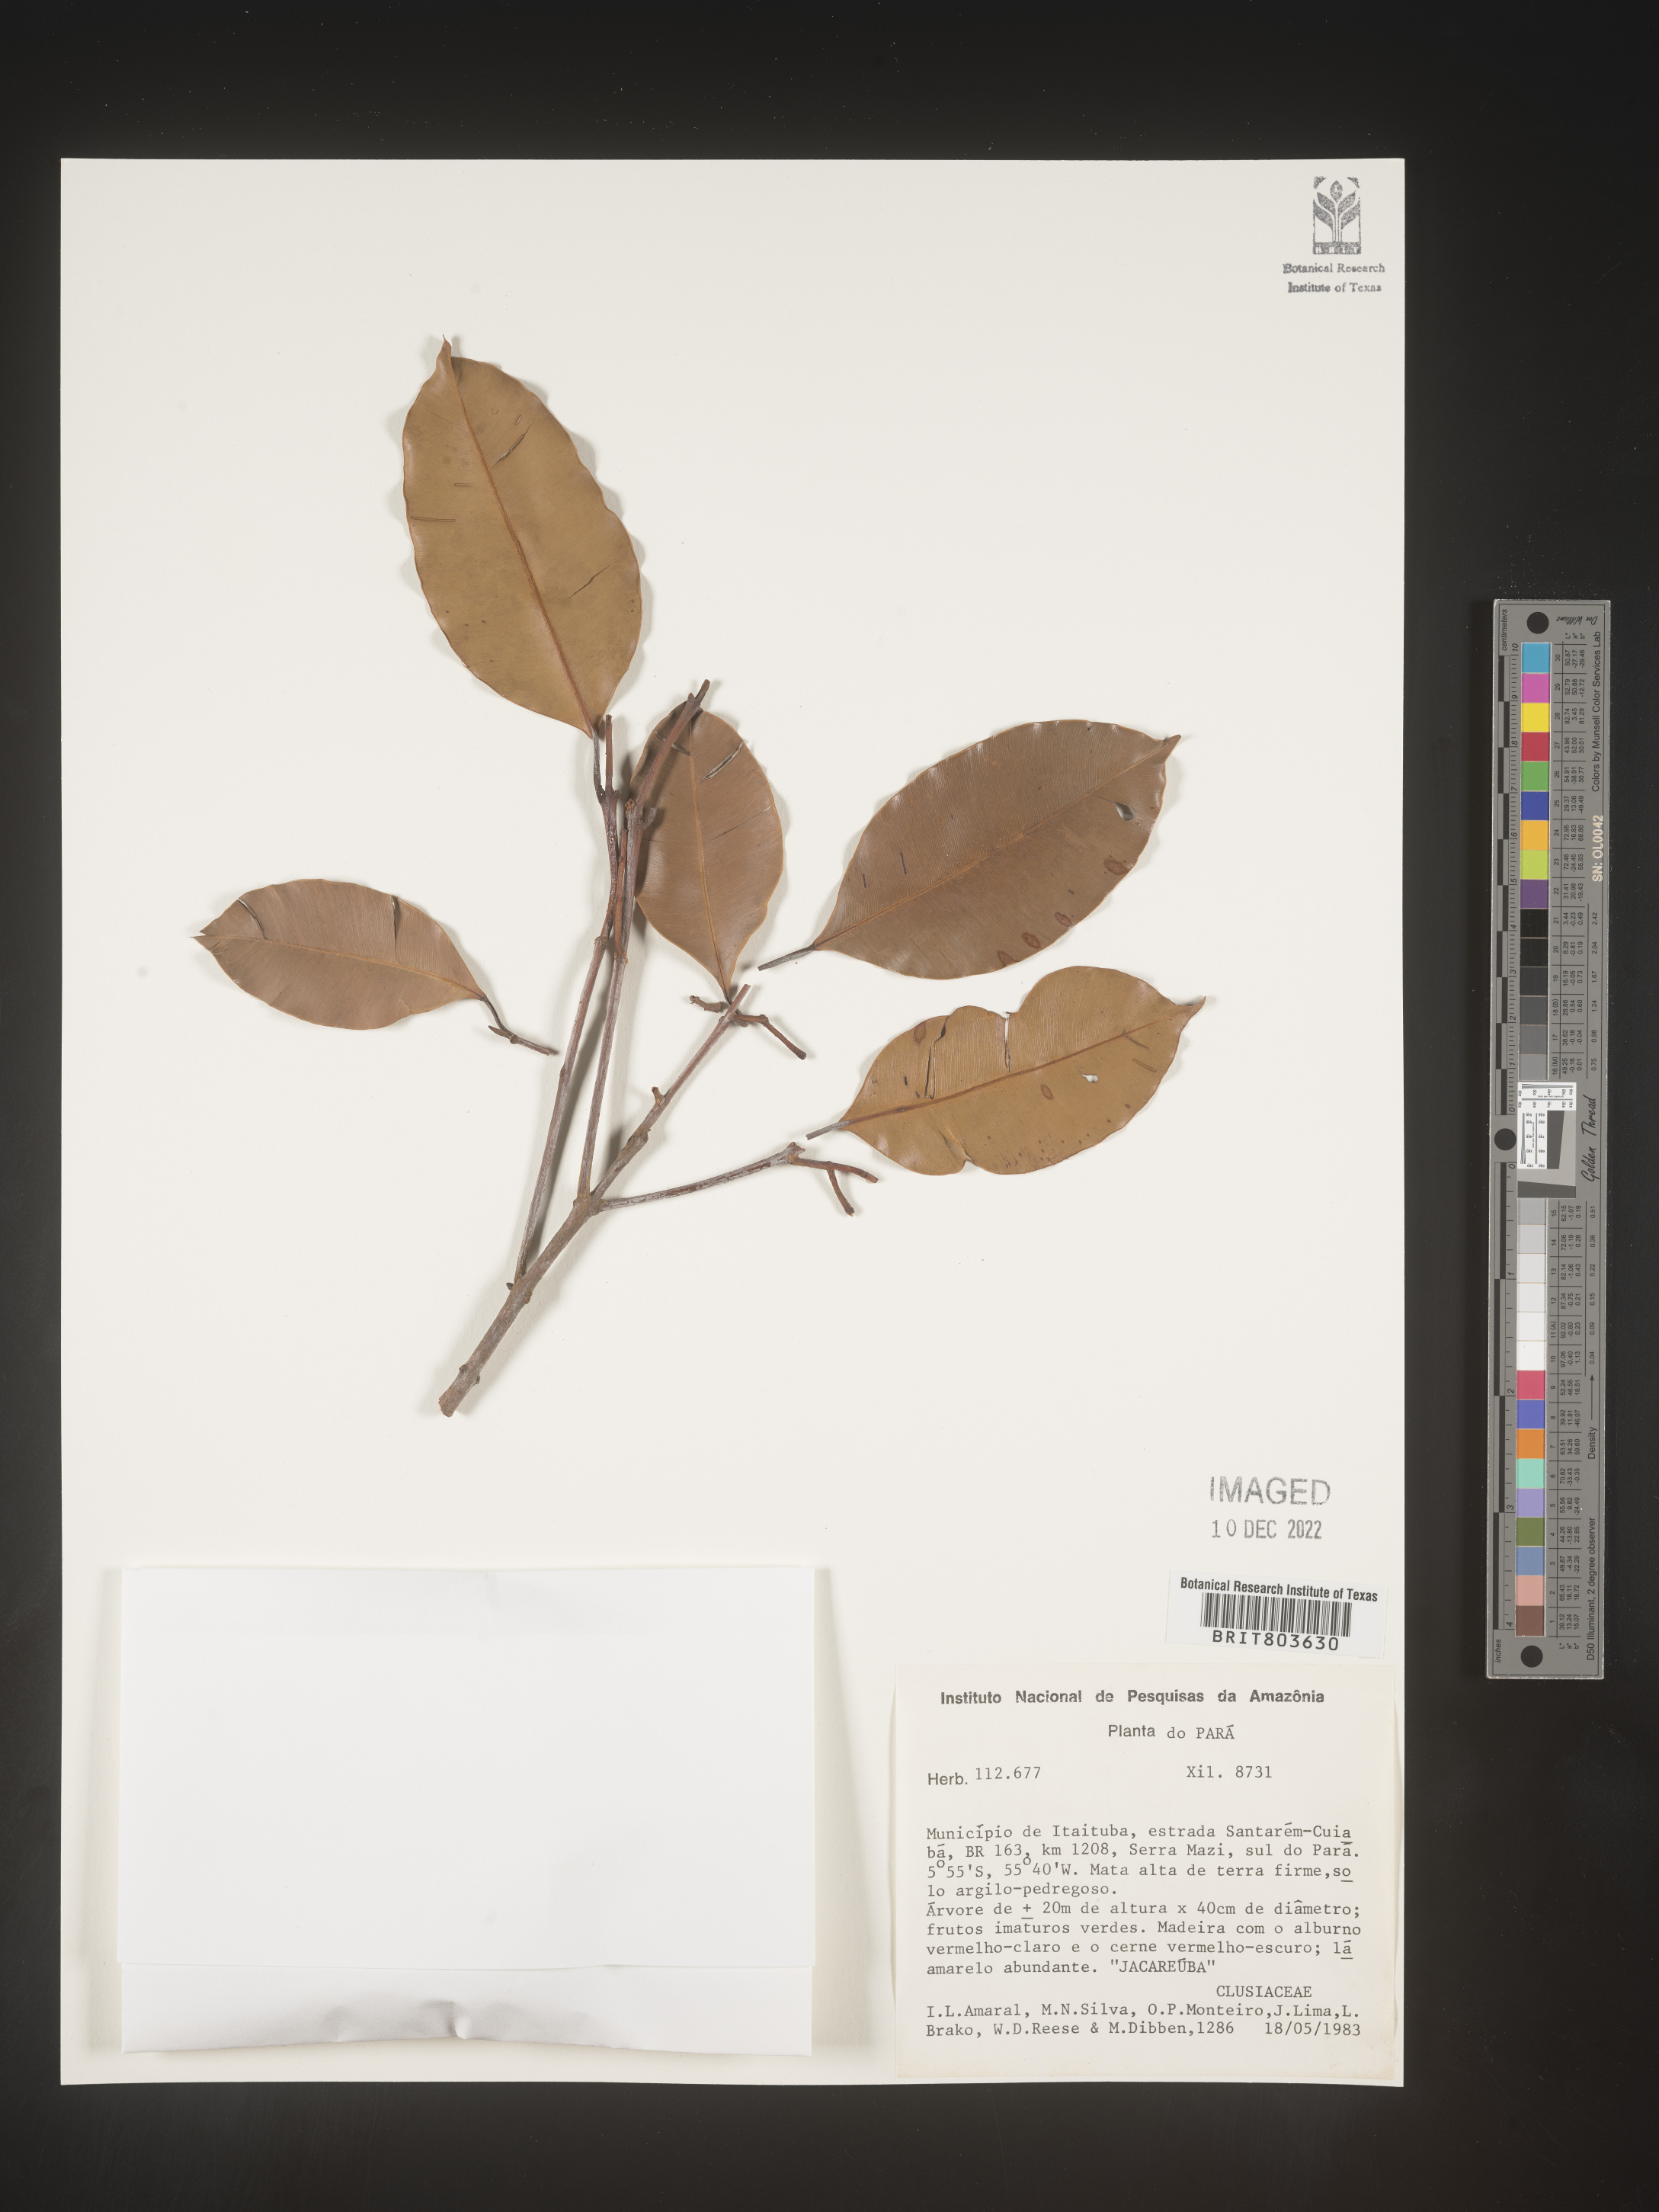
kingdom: Plantae
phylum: Tracheophyta
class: Magnoliopsida
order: Malpighiales
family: Clusiaceae
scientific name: Clusiaceae
